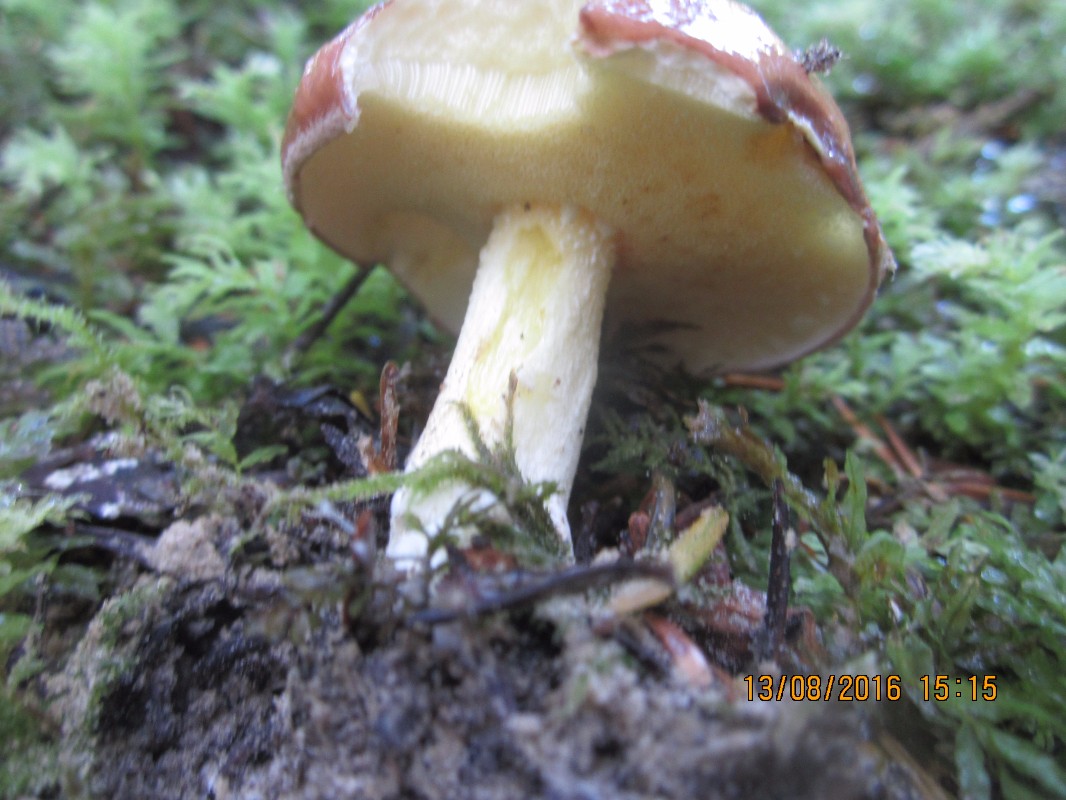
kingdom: Fungi
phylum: Basidiomycota
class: Agaricomycetes
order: Boletales
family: Suillaceae
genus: Suillus
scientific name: Suillus granulatus
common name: kornet slimrørhat
